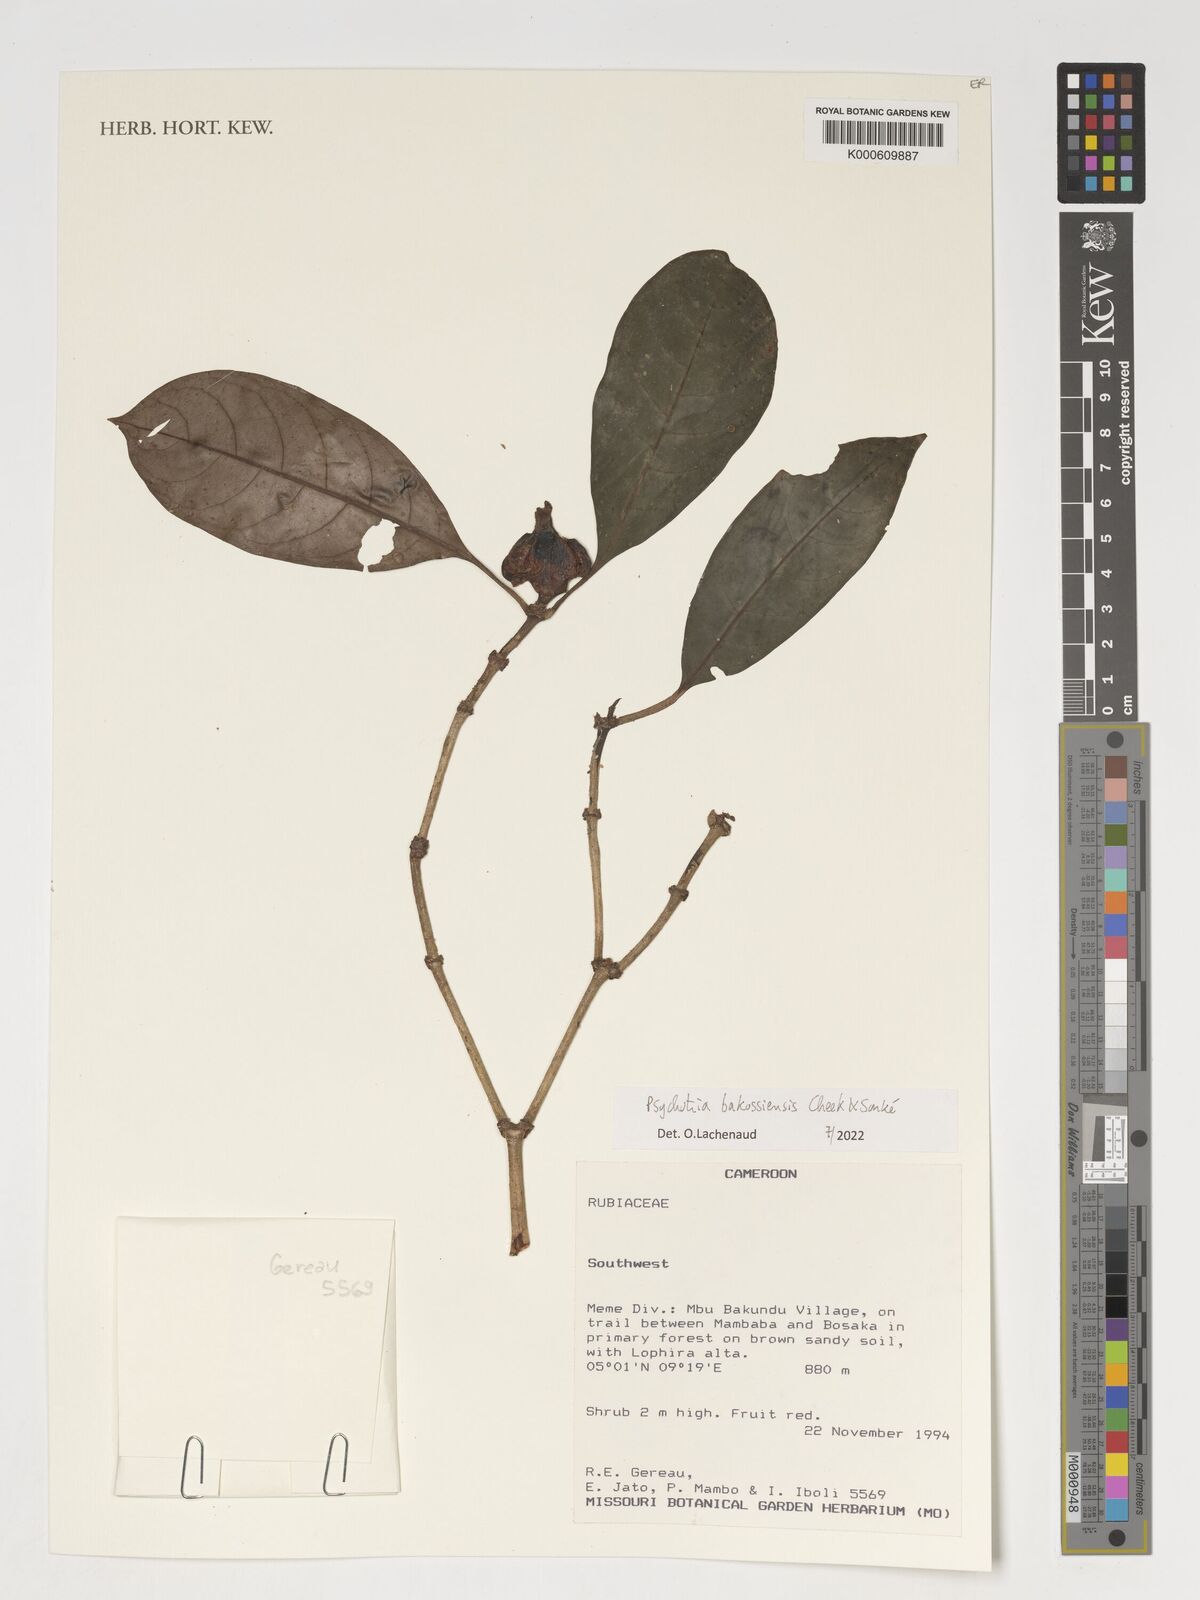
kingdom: Plantae
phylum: Tracheophyta
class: Magnoliopsida
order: Gentianales
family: Rubiaceae
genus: Psychotria
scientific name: Psychotria bakossiensis
